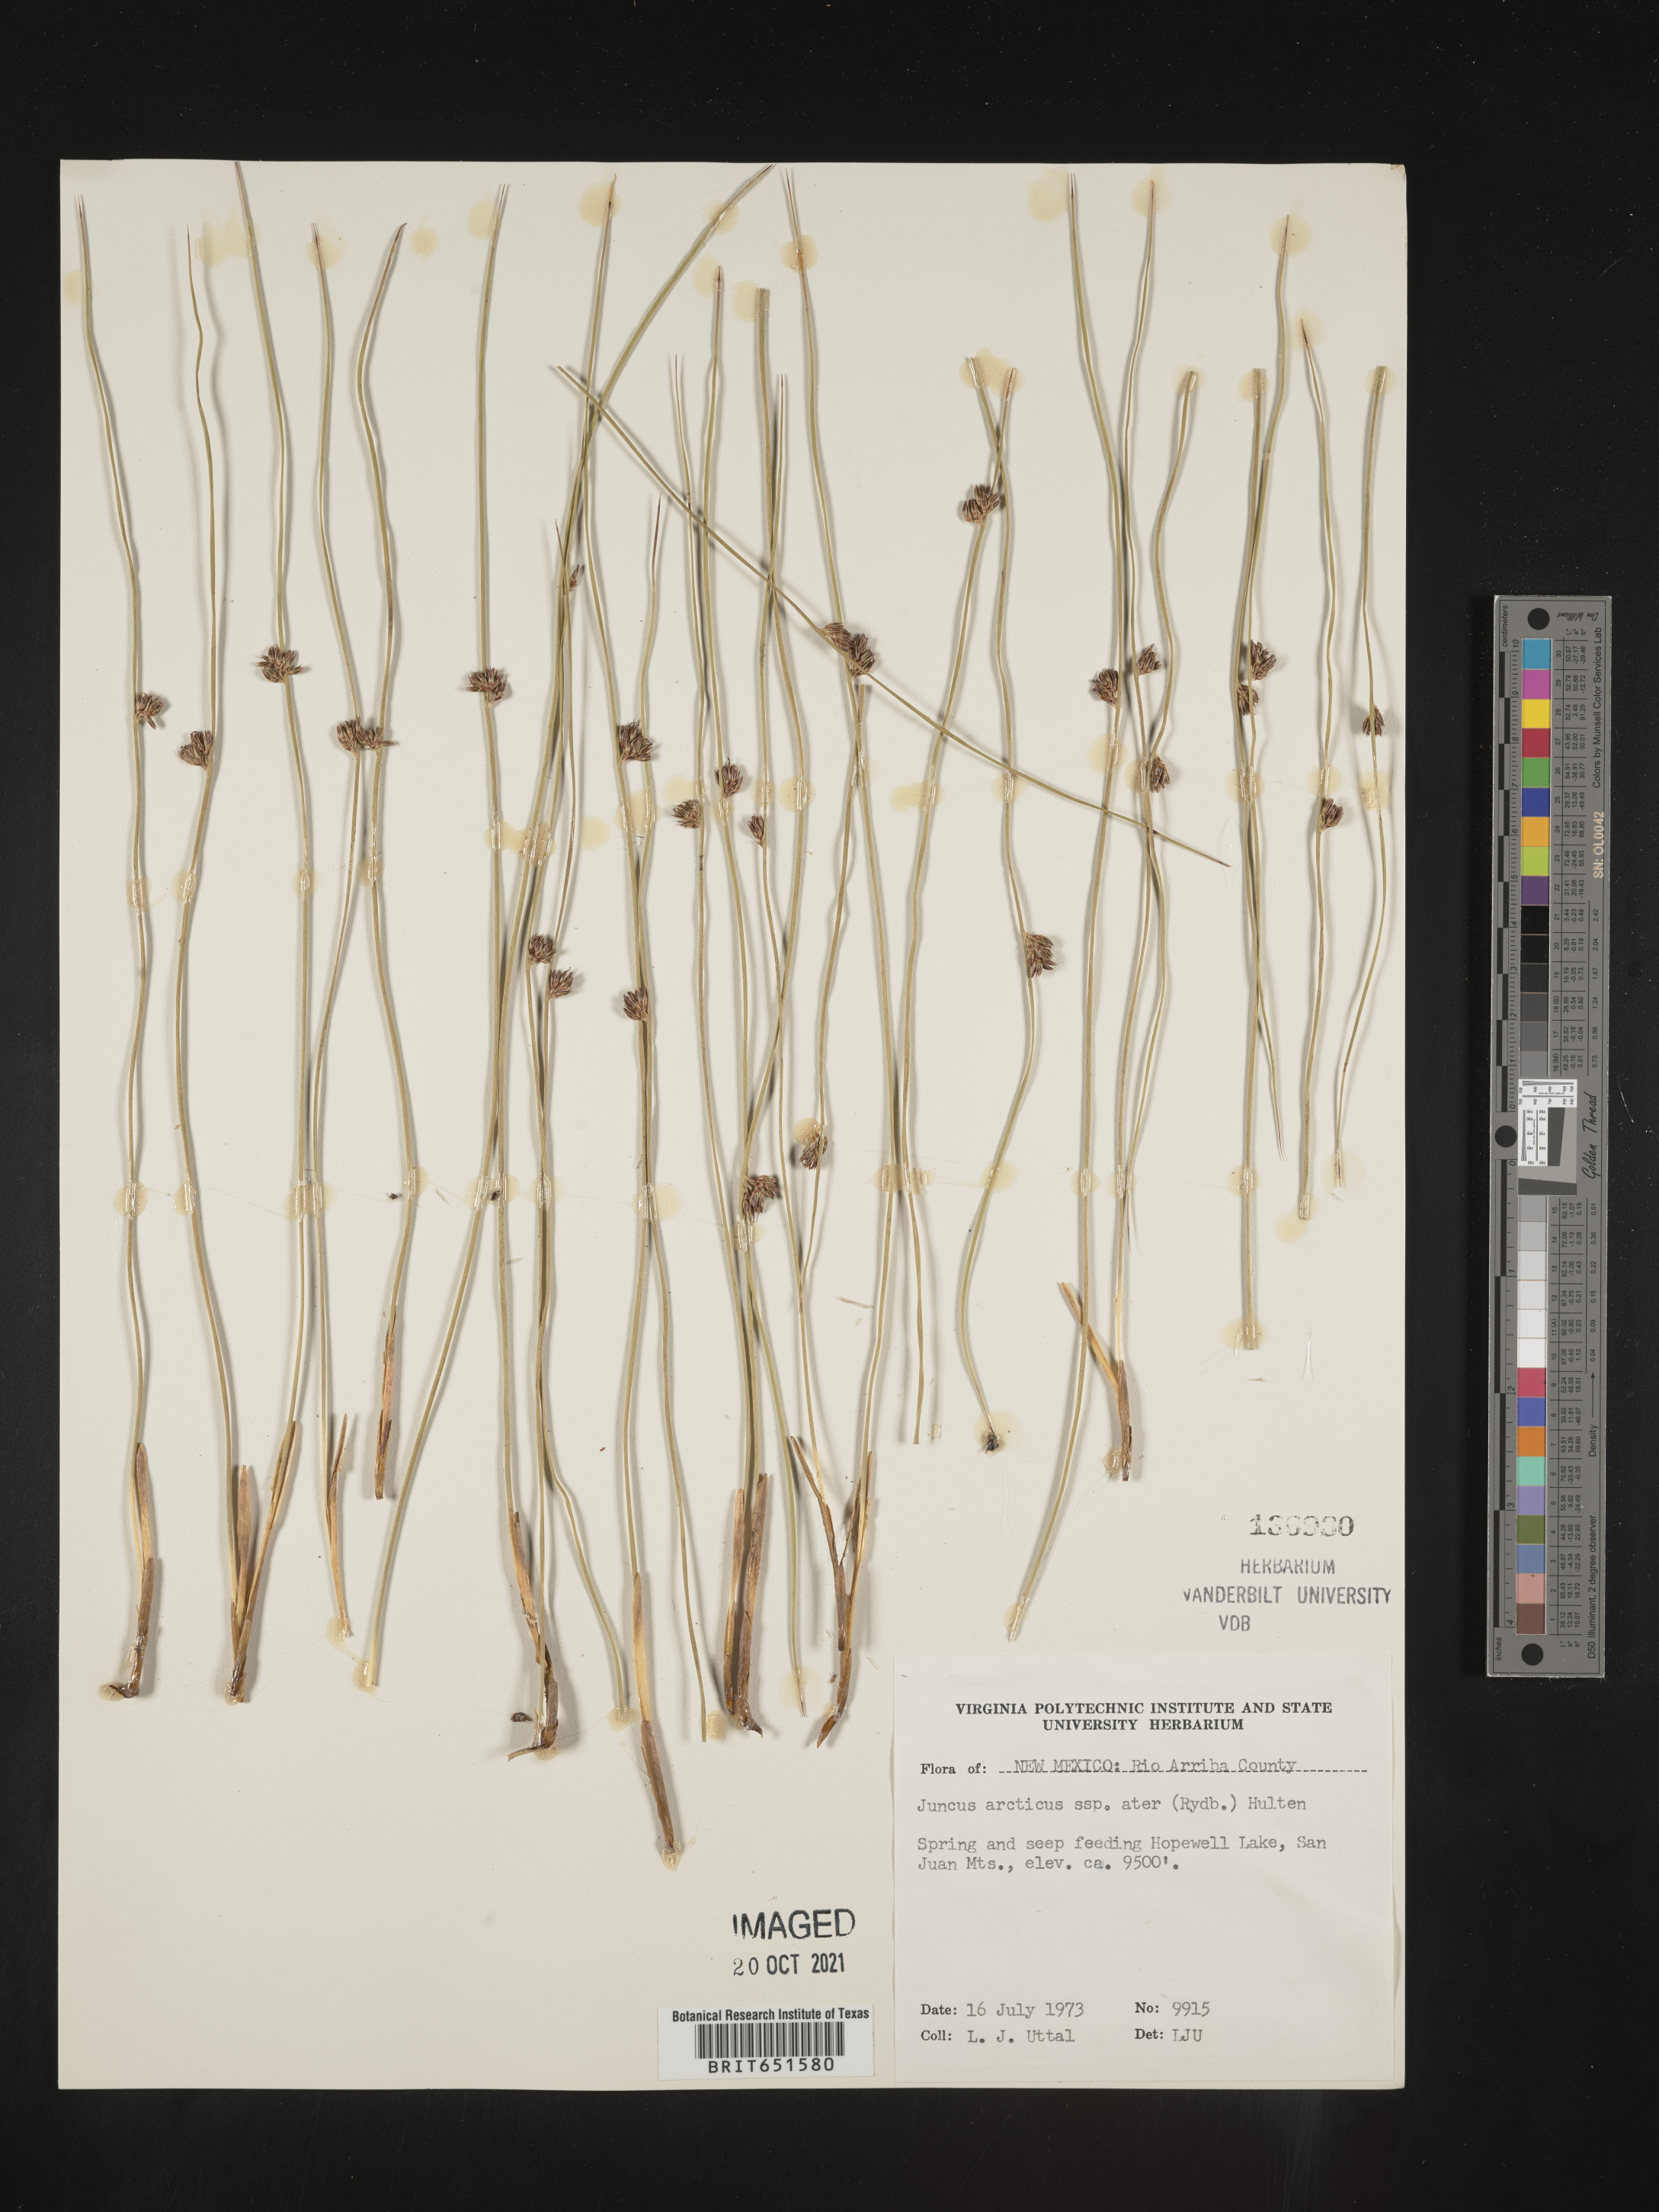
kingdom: Plantae
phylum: Tracheophyta
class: Liliopsida
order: Poales
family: Juncaceae
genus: Juncus
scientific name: Juncus balticus
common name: Baltic rush
